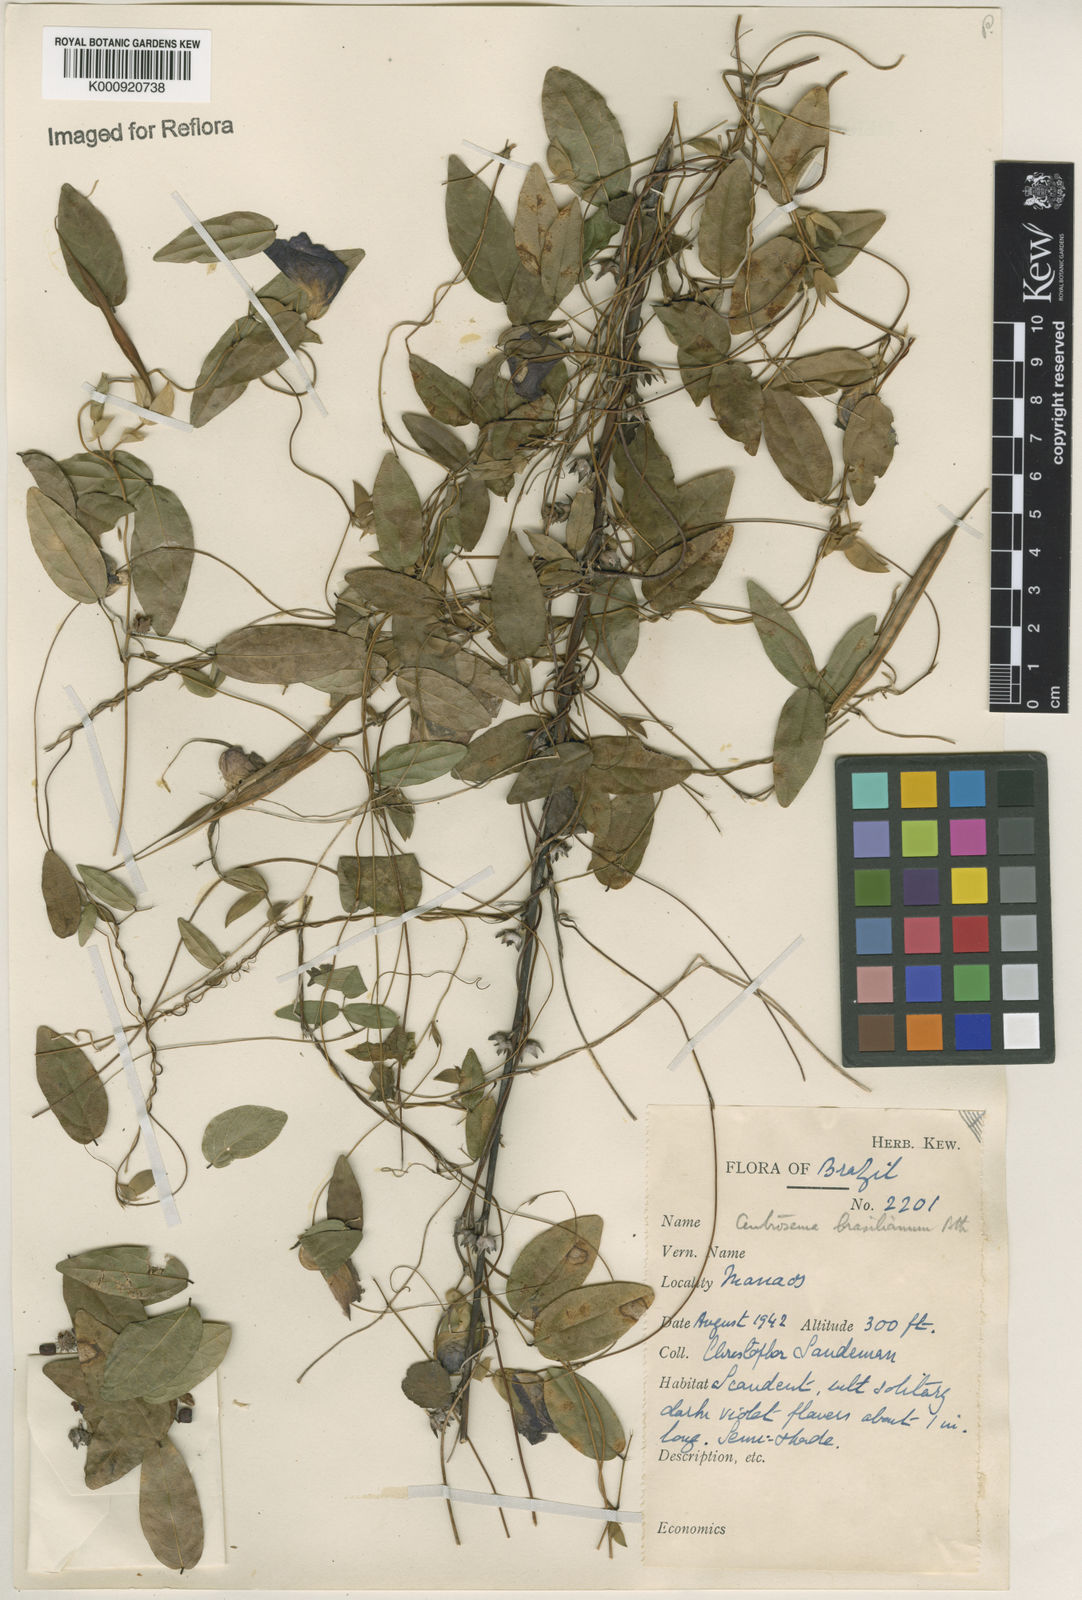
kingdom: Plantae
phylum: Tracheophyta
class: Magnoliopsida
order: Fabales
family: Fabaceae
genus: Centrosema
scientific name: Centrosema brasilianum
